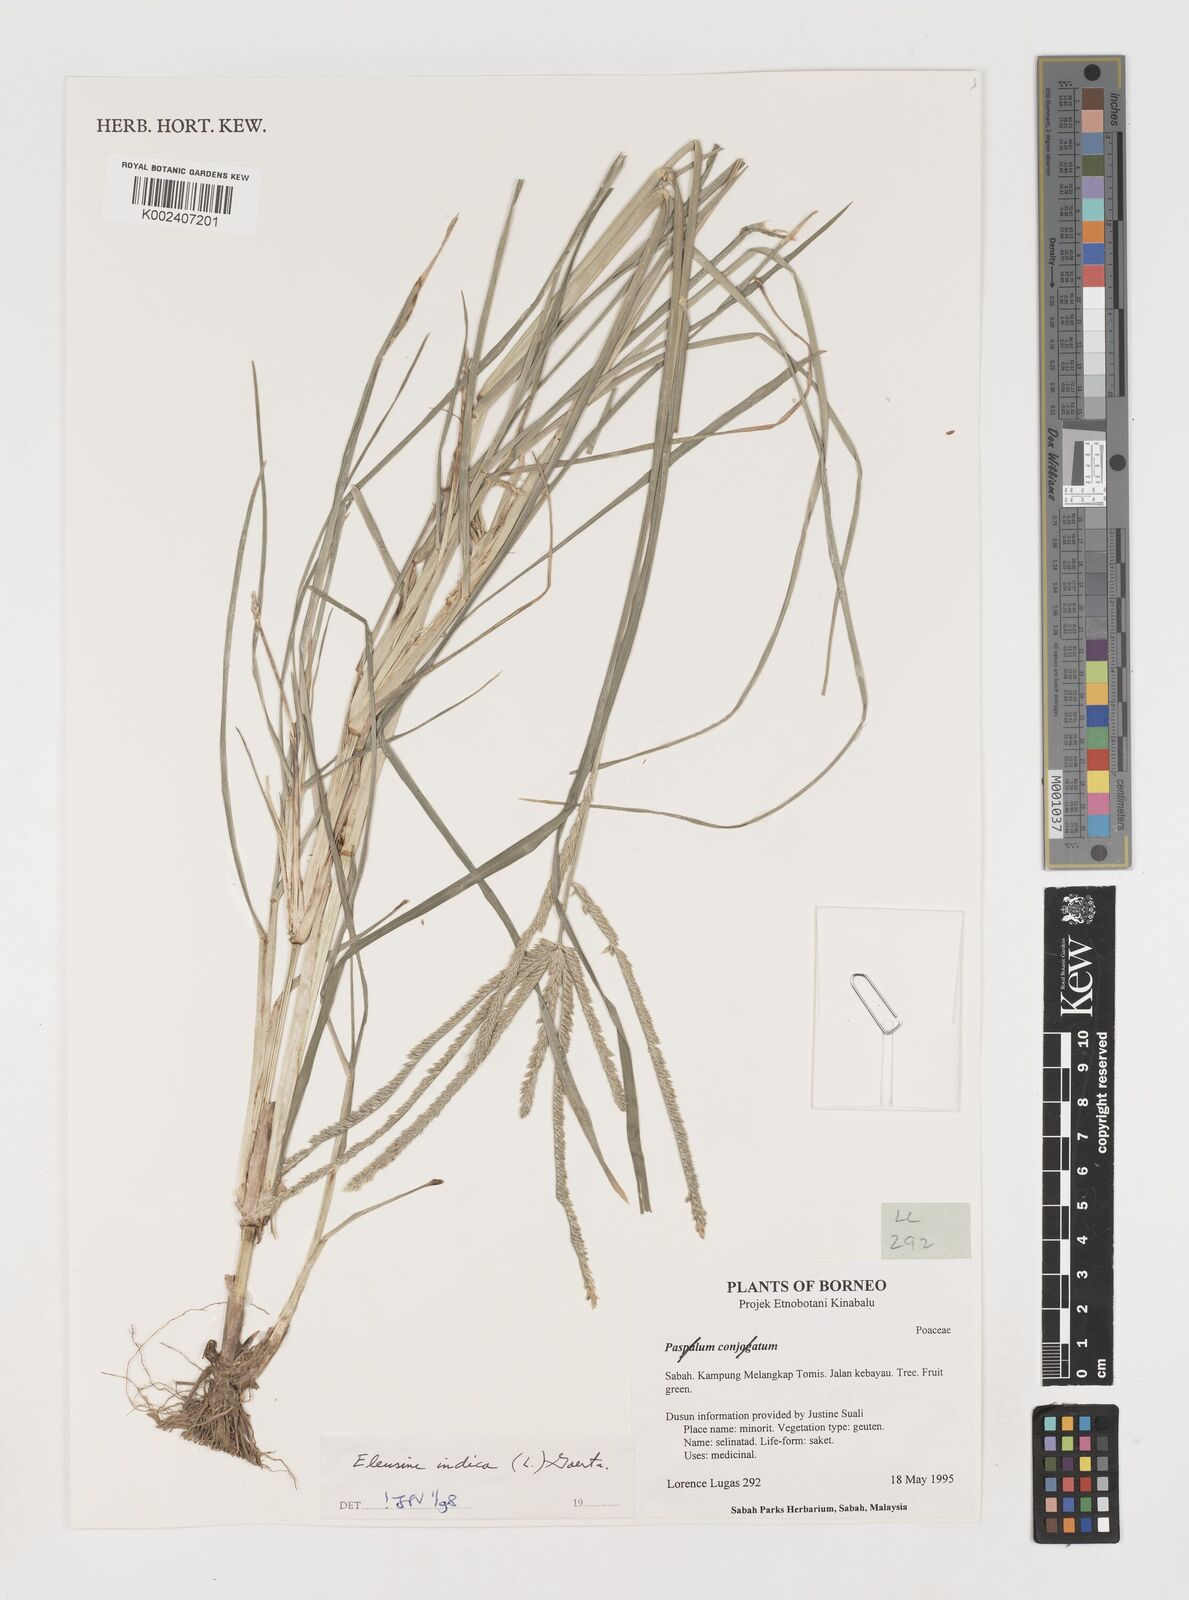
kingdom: Plantae
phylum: Tracheophyta
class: Liliopsida
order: Poales
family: Poaceae
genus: Eleusine
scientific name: Eleusine indica
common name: Yard-grass
